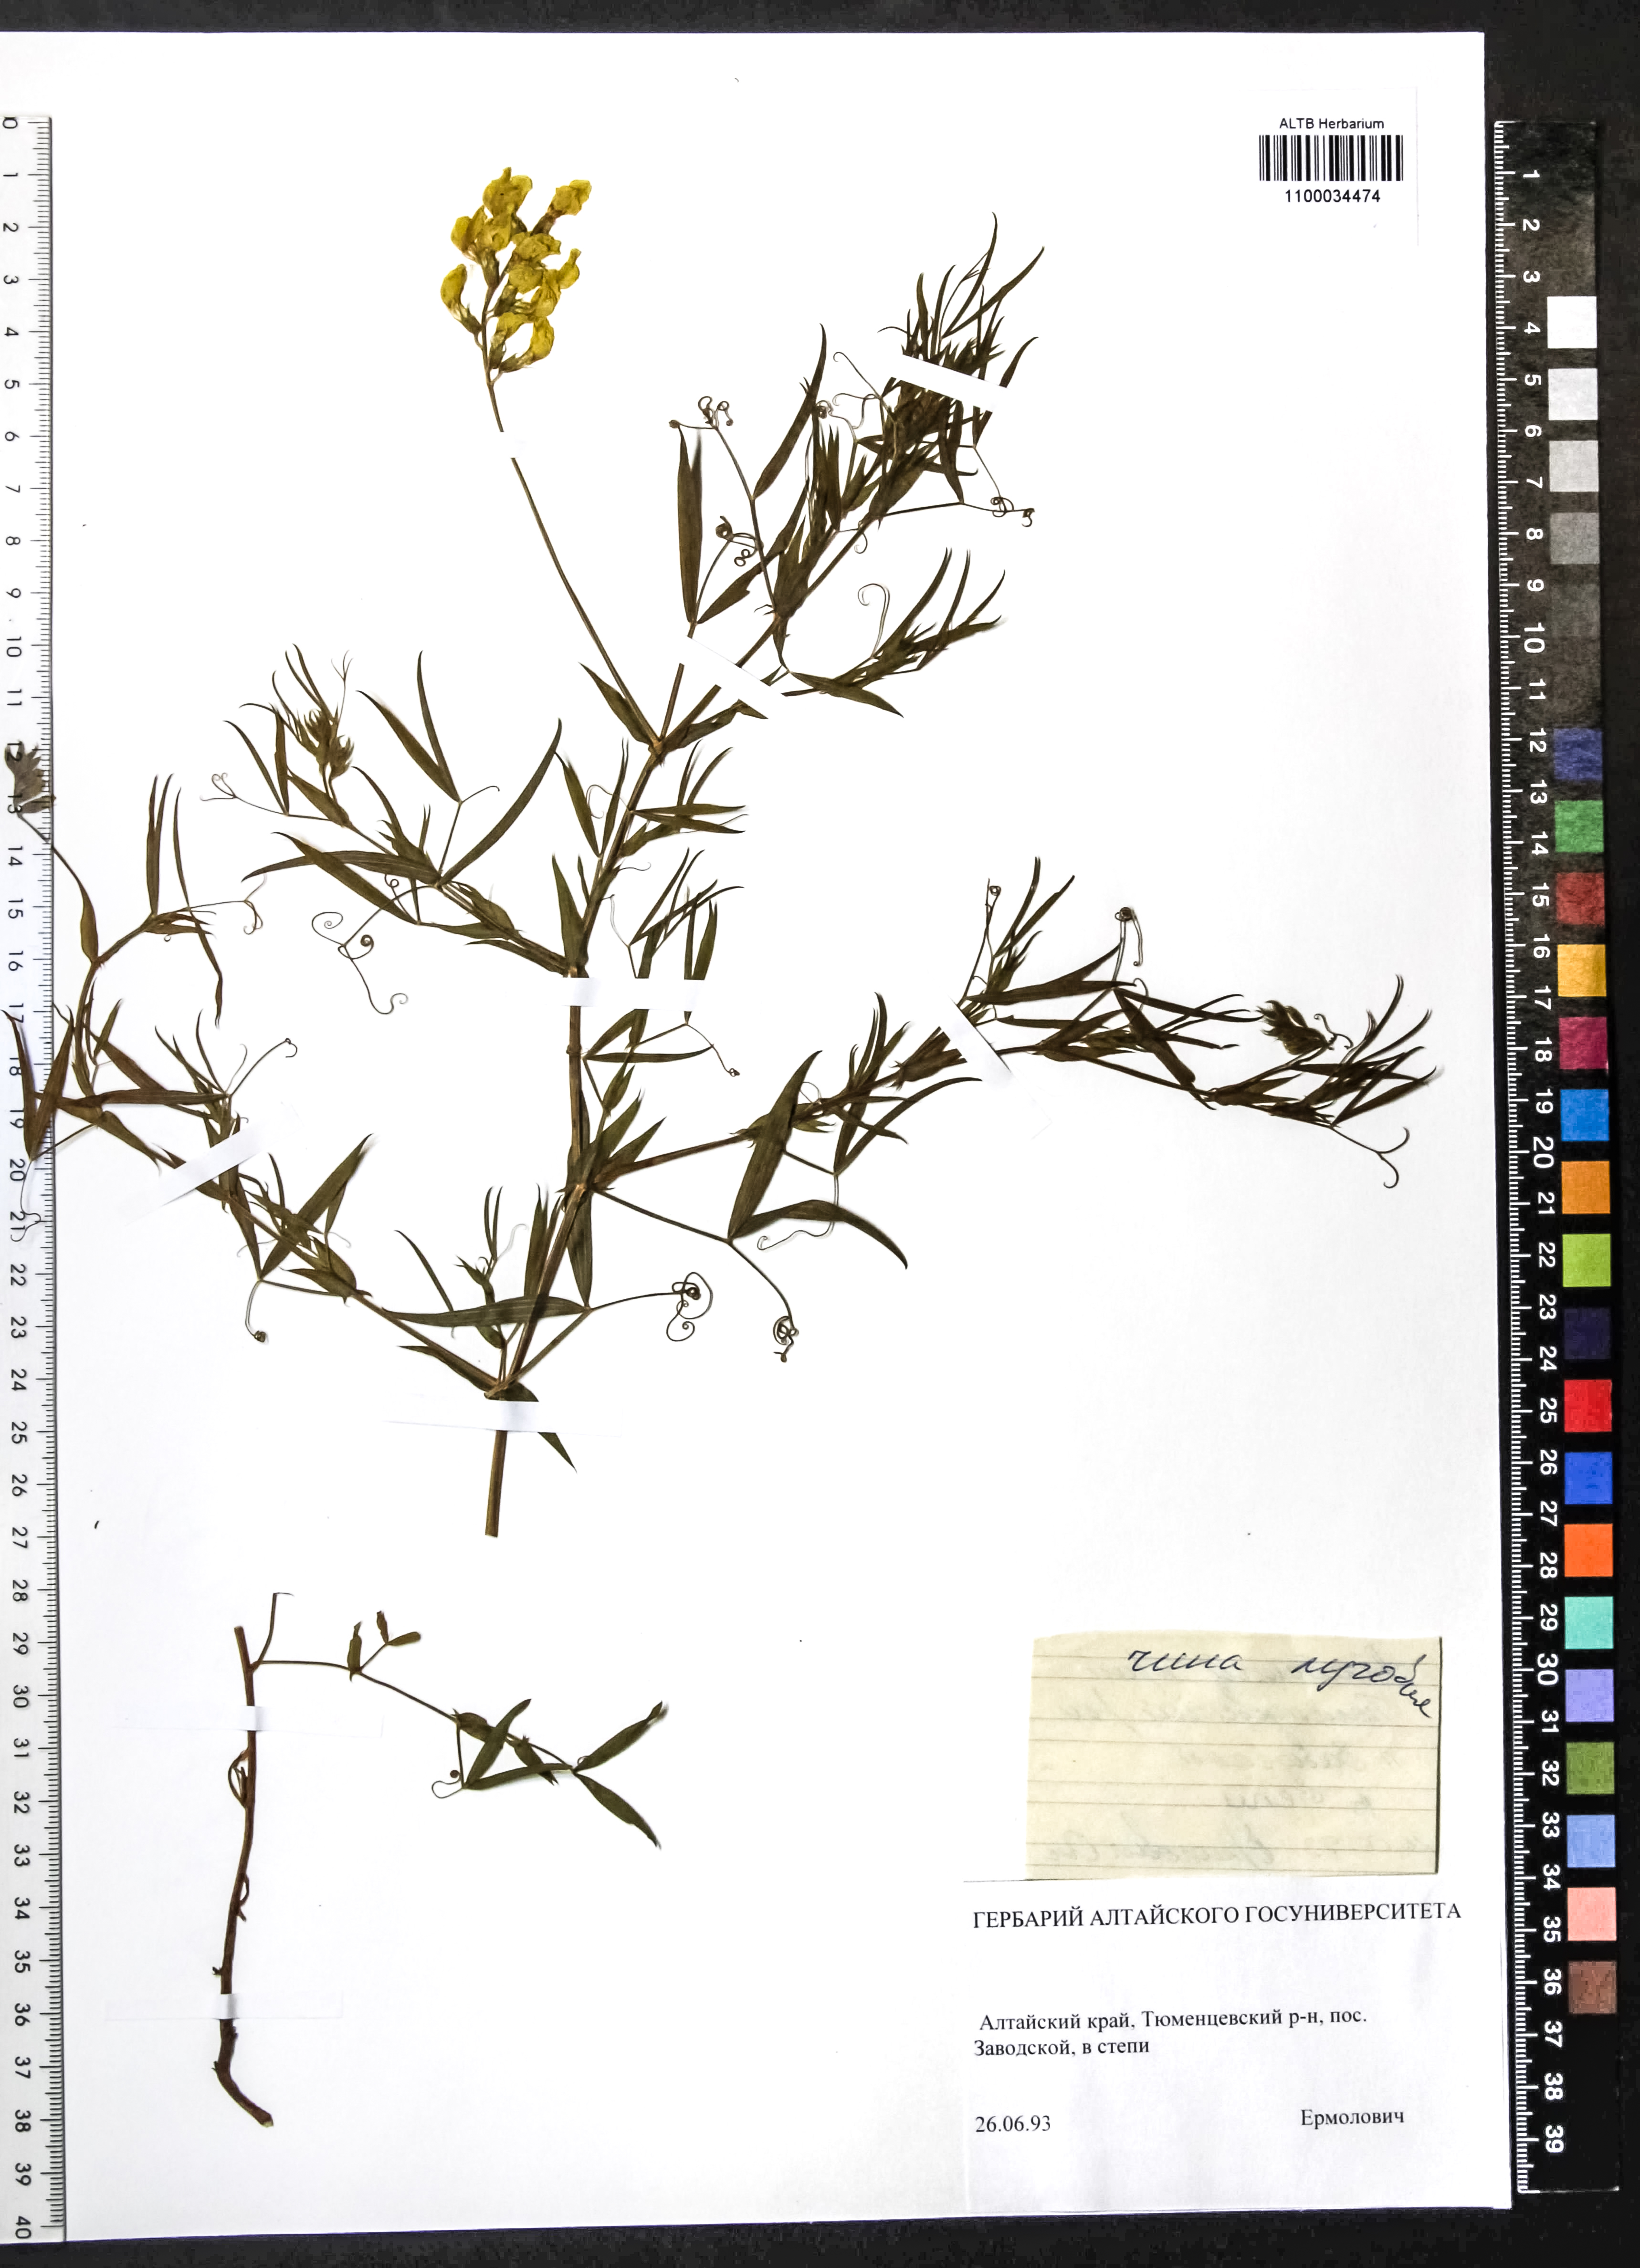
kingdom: Plantae
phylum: Tracheophyta
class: Magnoliopsida
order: Fabales
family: Fabaceae
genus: Lathyrus
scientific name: Lathyrus pratensis
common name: Meadow vetchling
